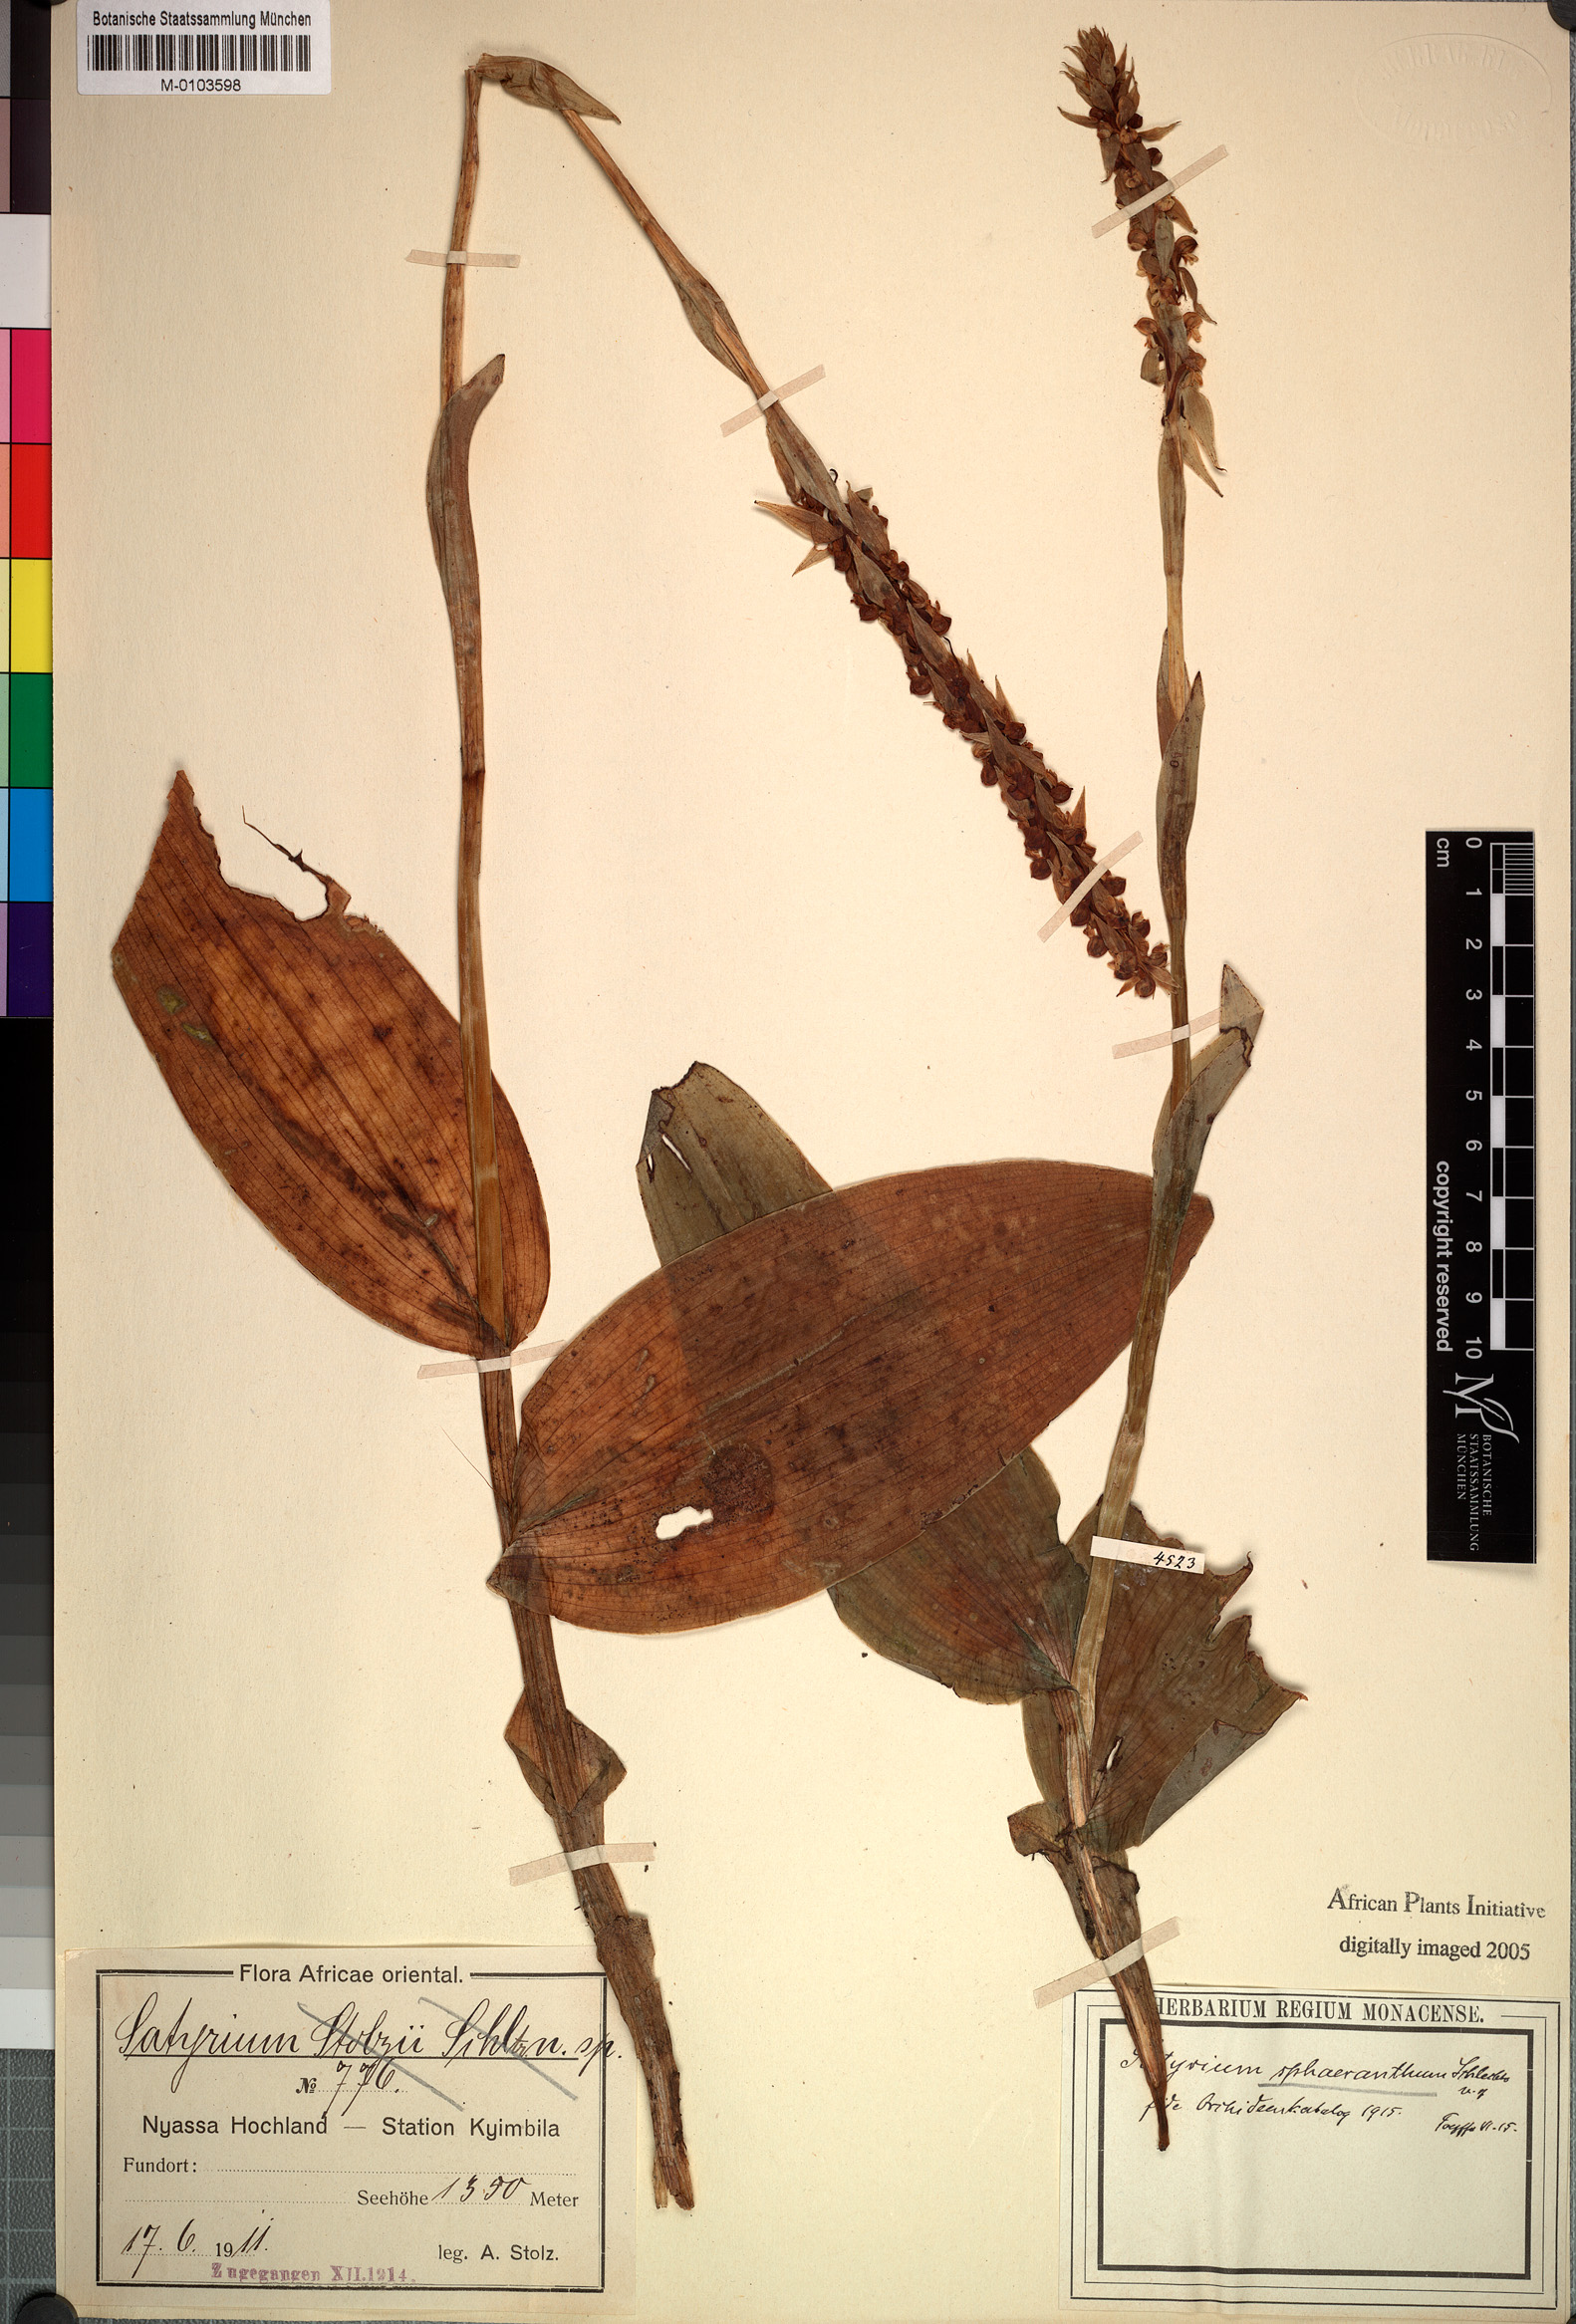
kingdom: Plantae
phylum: Tracheophyta
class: Liliopsida
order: Asparagales
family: Orchidaceae
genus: Satyrium
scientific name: Satyrium sphaeranthum
